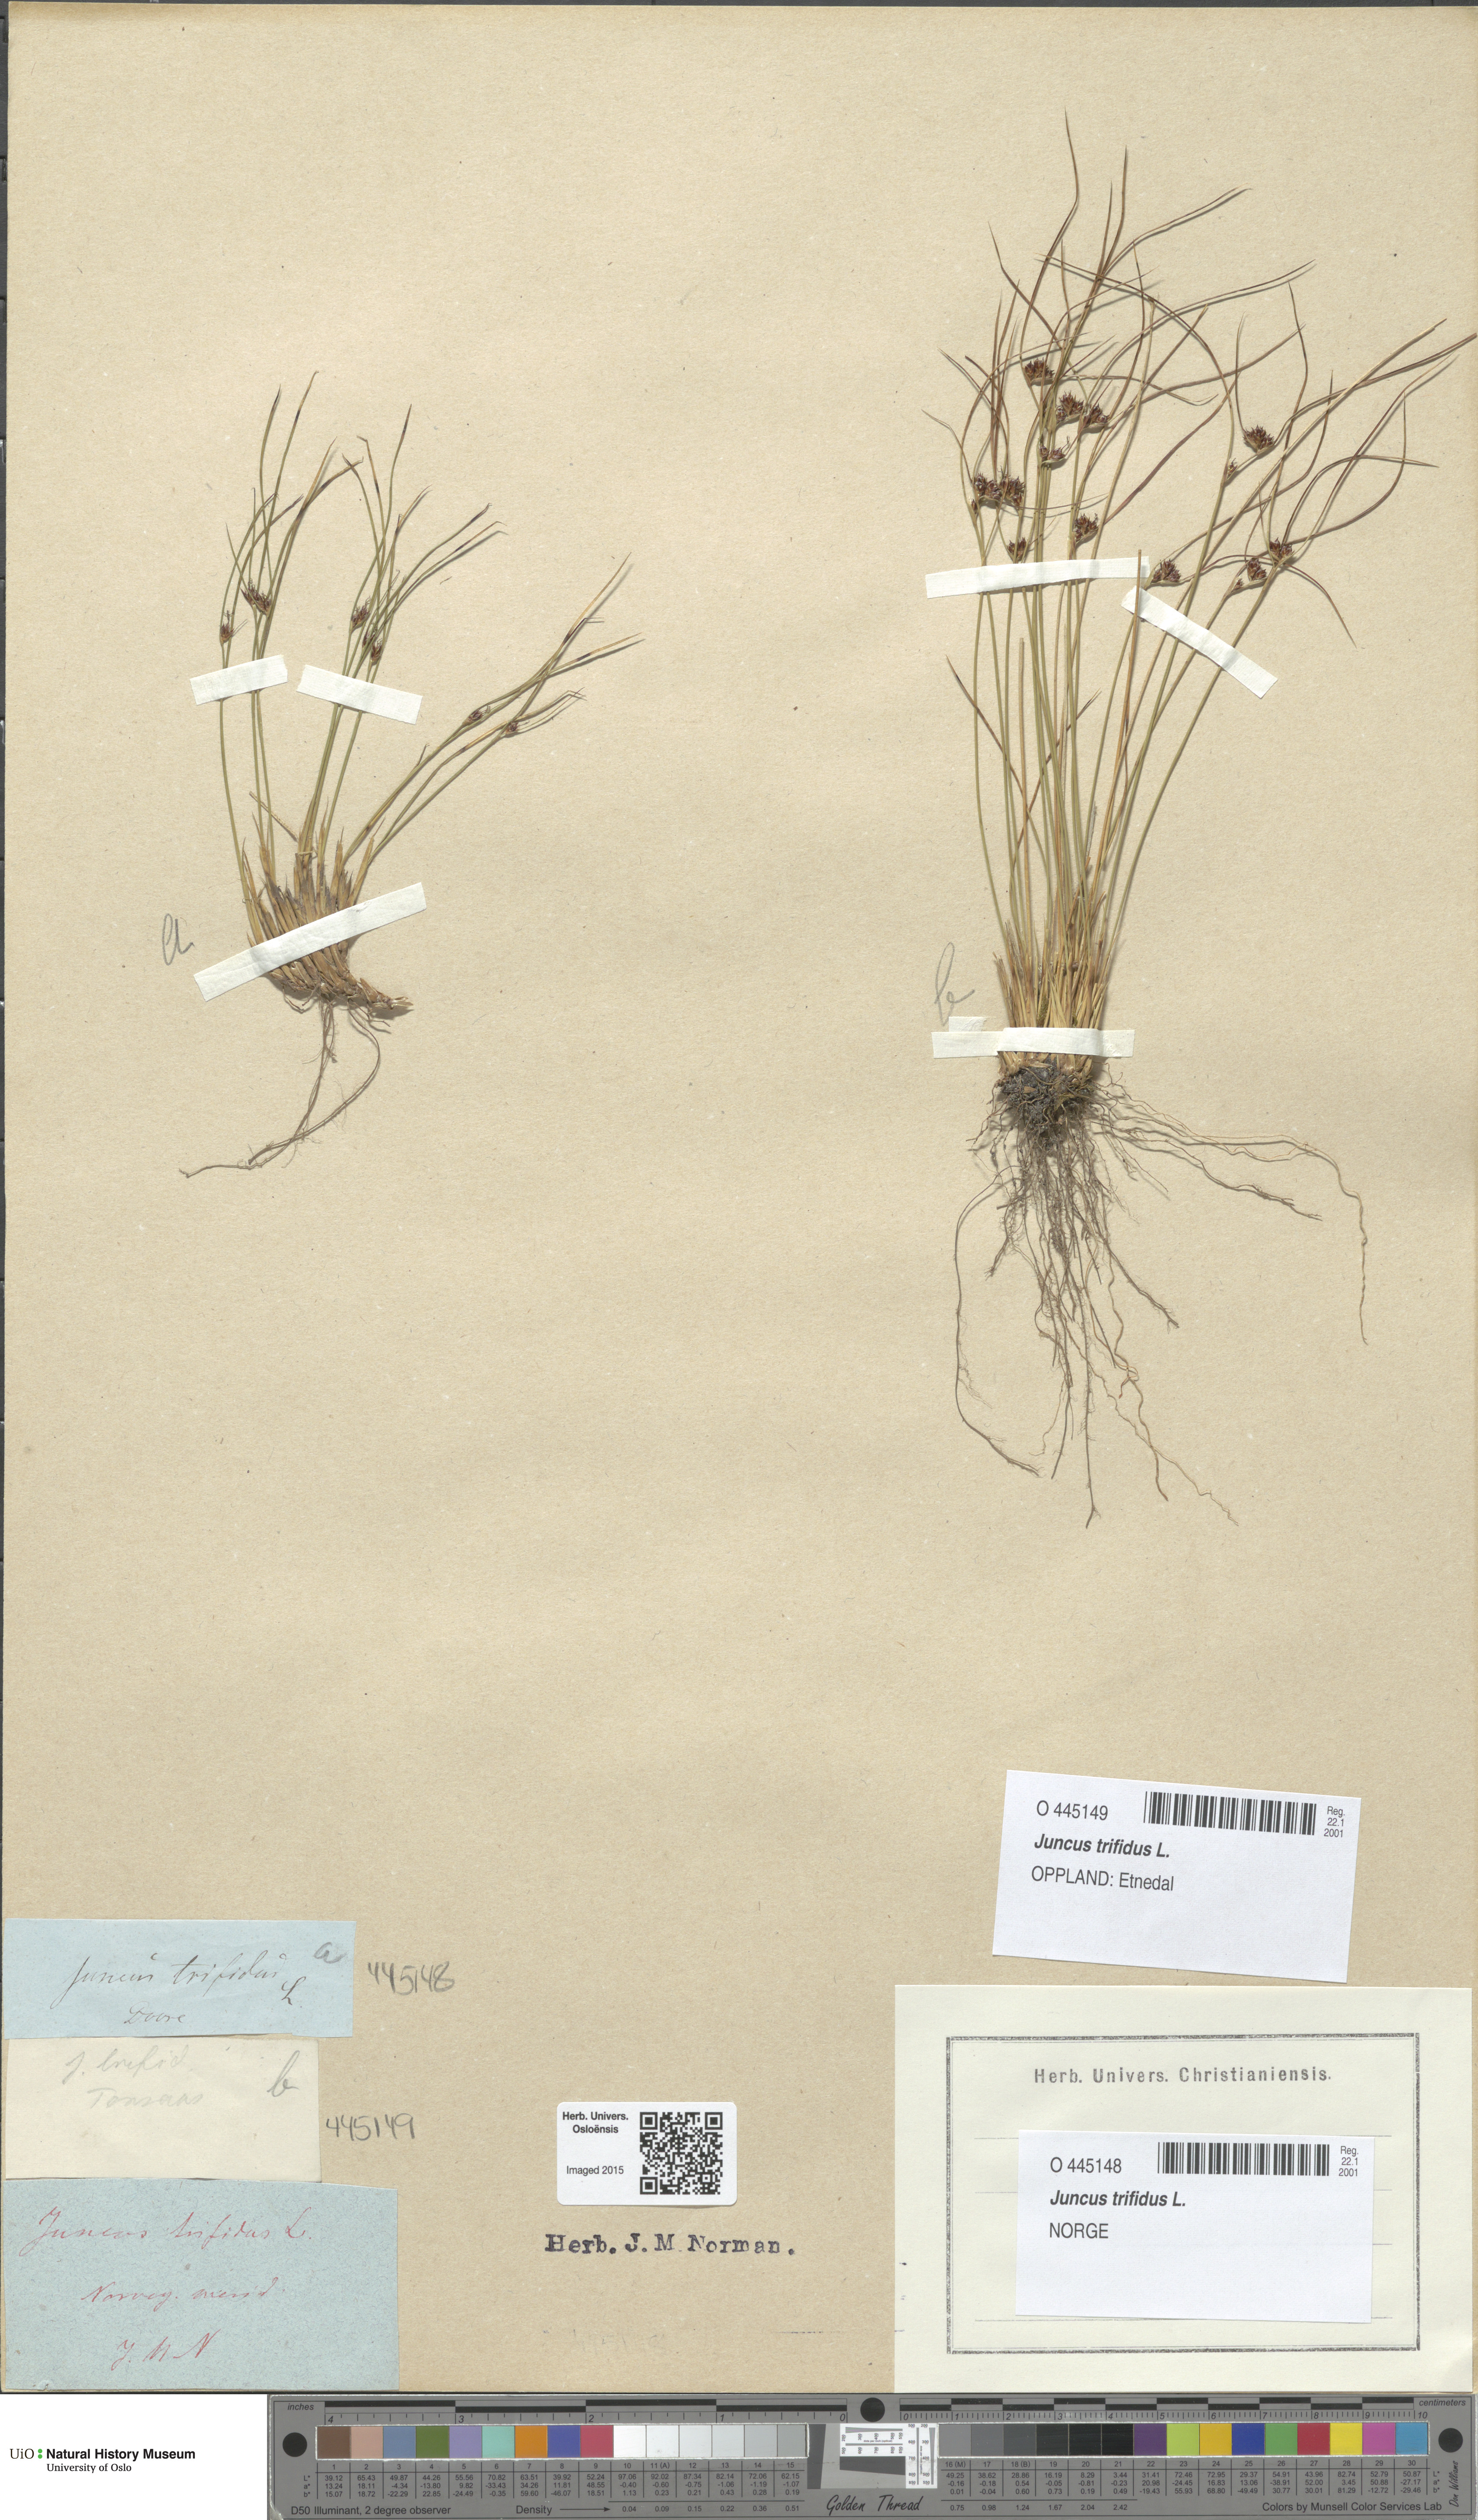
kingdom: Plantae
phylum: Tracheophyta
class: Liliopsida
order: Poales
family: Juncaceae
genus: Oreojuncus
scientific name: Oreojuncus trifidus
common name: Highland rush
